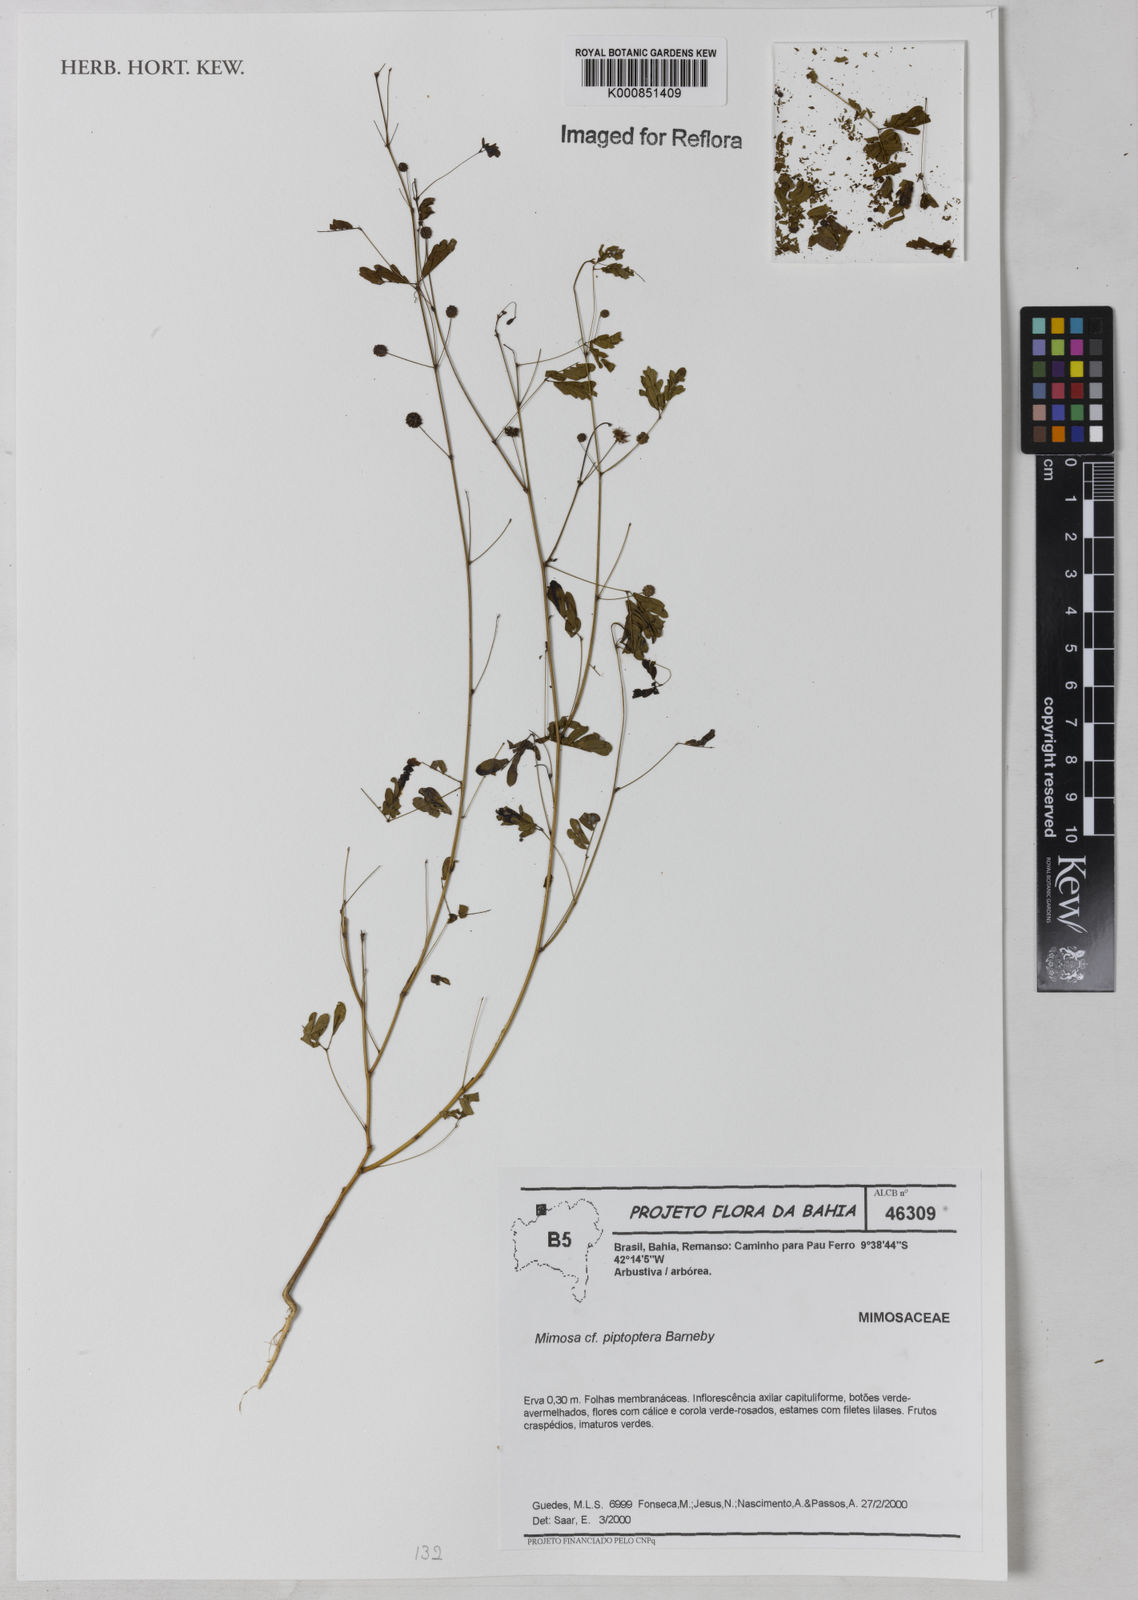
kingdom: Plantae
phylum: Tracheophyta
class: Magnoliopsida
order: Fabales
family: Fabaceae
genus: Mimosa
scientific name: Mimosa filipes
